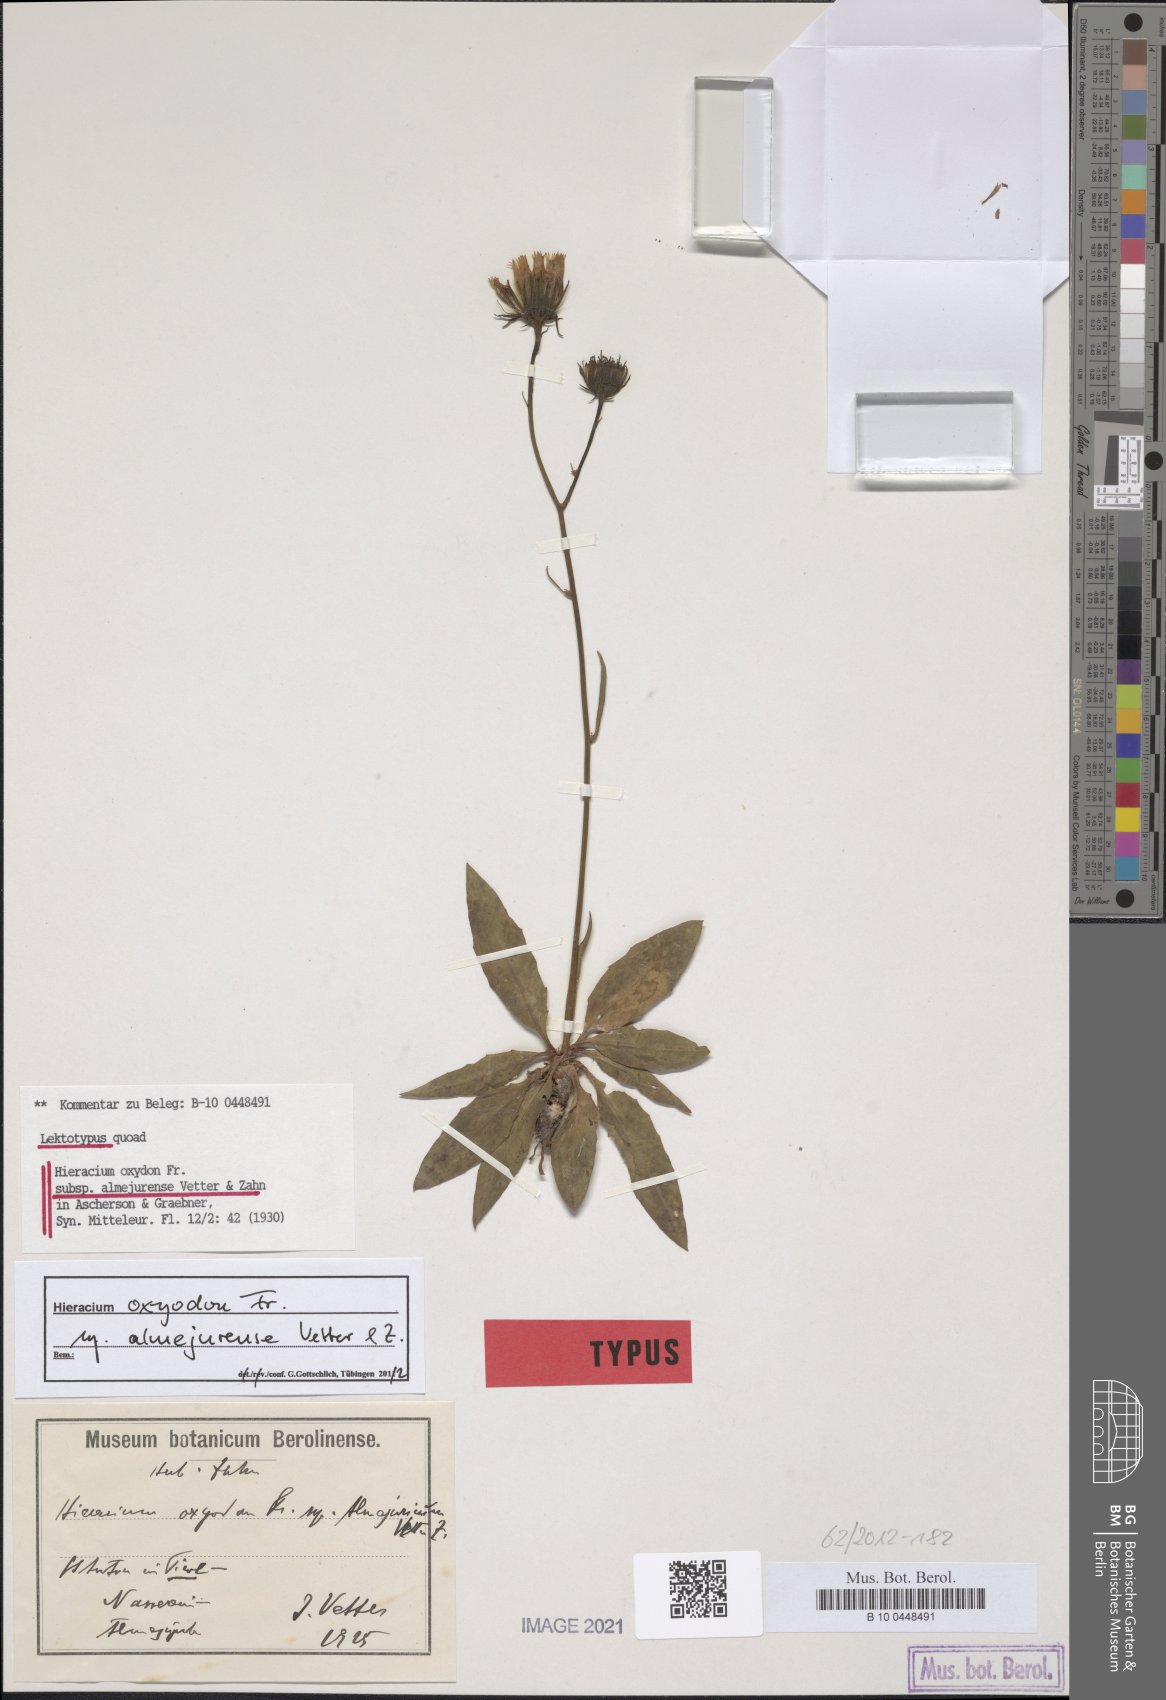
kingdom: Plantae
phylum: Tracheophyta
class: Magnoliopsida
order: Asterales
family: Asteraceae
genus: Hieracium
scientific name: Hieracium oxyodon
